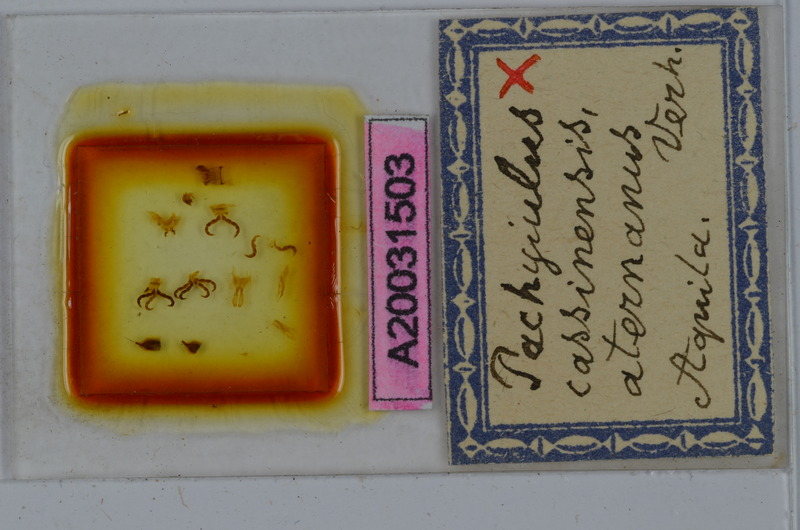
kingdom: Animalia
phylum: Arthropoda
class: Diplopoda
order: Julida
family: Julidae
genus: Pachyiulus
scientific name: Pachyiulus cassinensis
